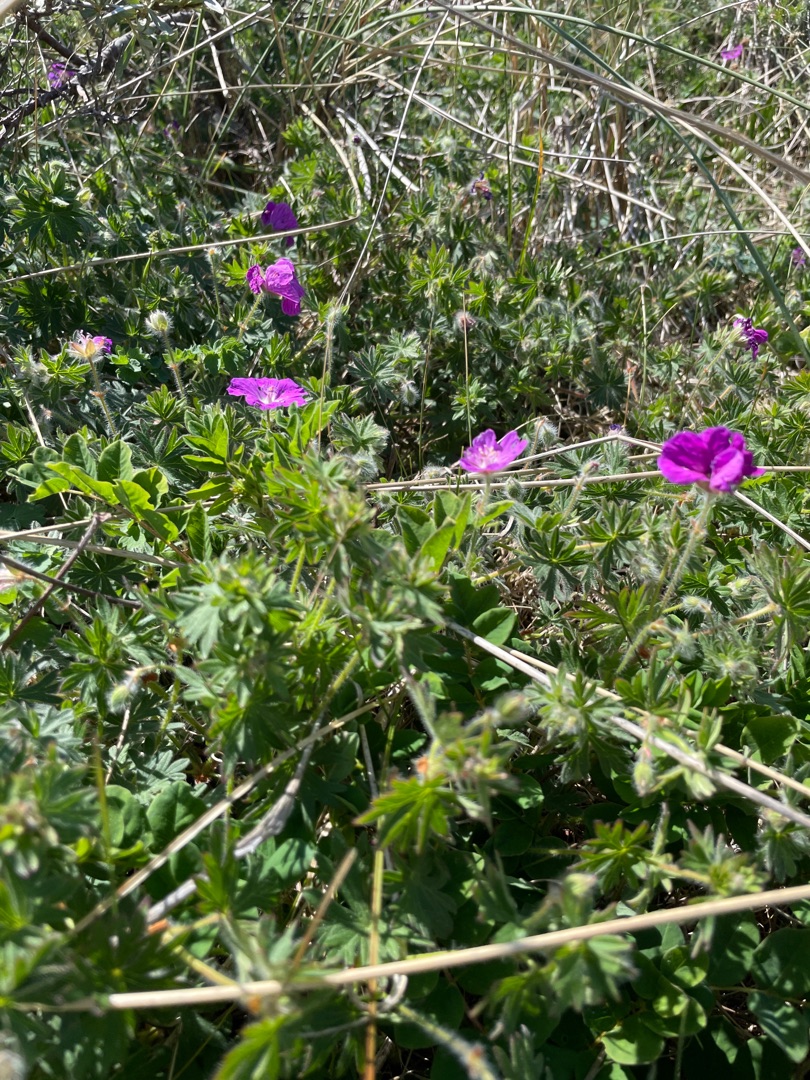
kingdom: Plantae
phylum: Tracheophyta
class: Magnoliopsida
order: Geraniales
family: Geraniaceae
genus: Geranium
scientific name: Geranium sanguineum
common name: Blodrød storkenæb
